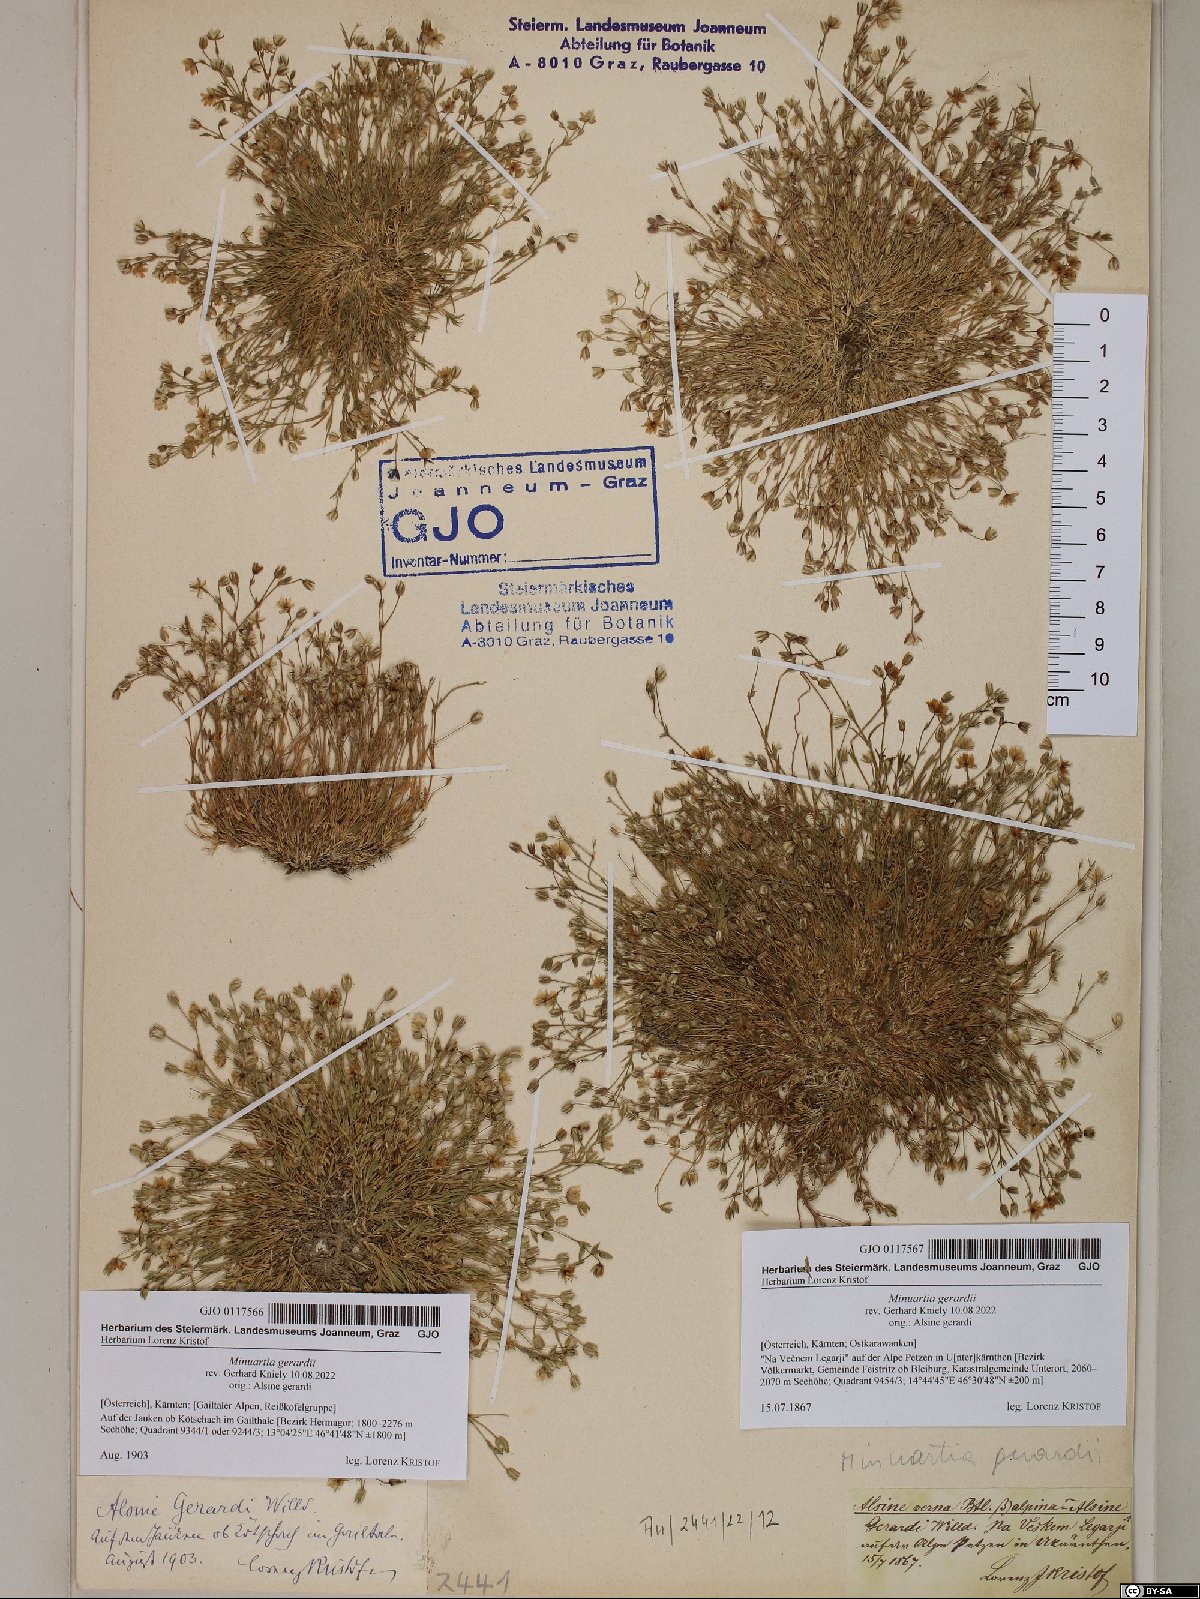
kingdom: Plantae
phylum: Tracheophyta
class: Magnoliopsida
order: Caryophyllales
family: Caryophyllaceae
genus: Sabulina
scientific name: Sabulina verna
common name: Spring sandwort
